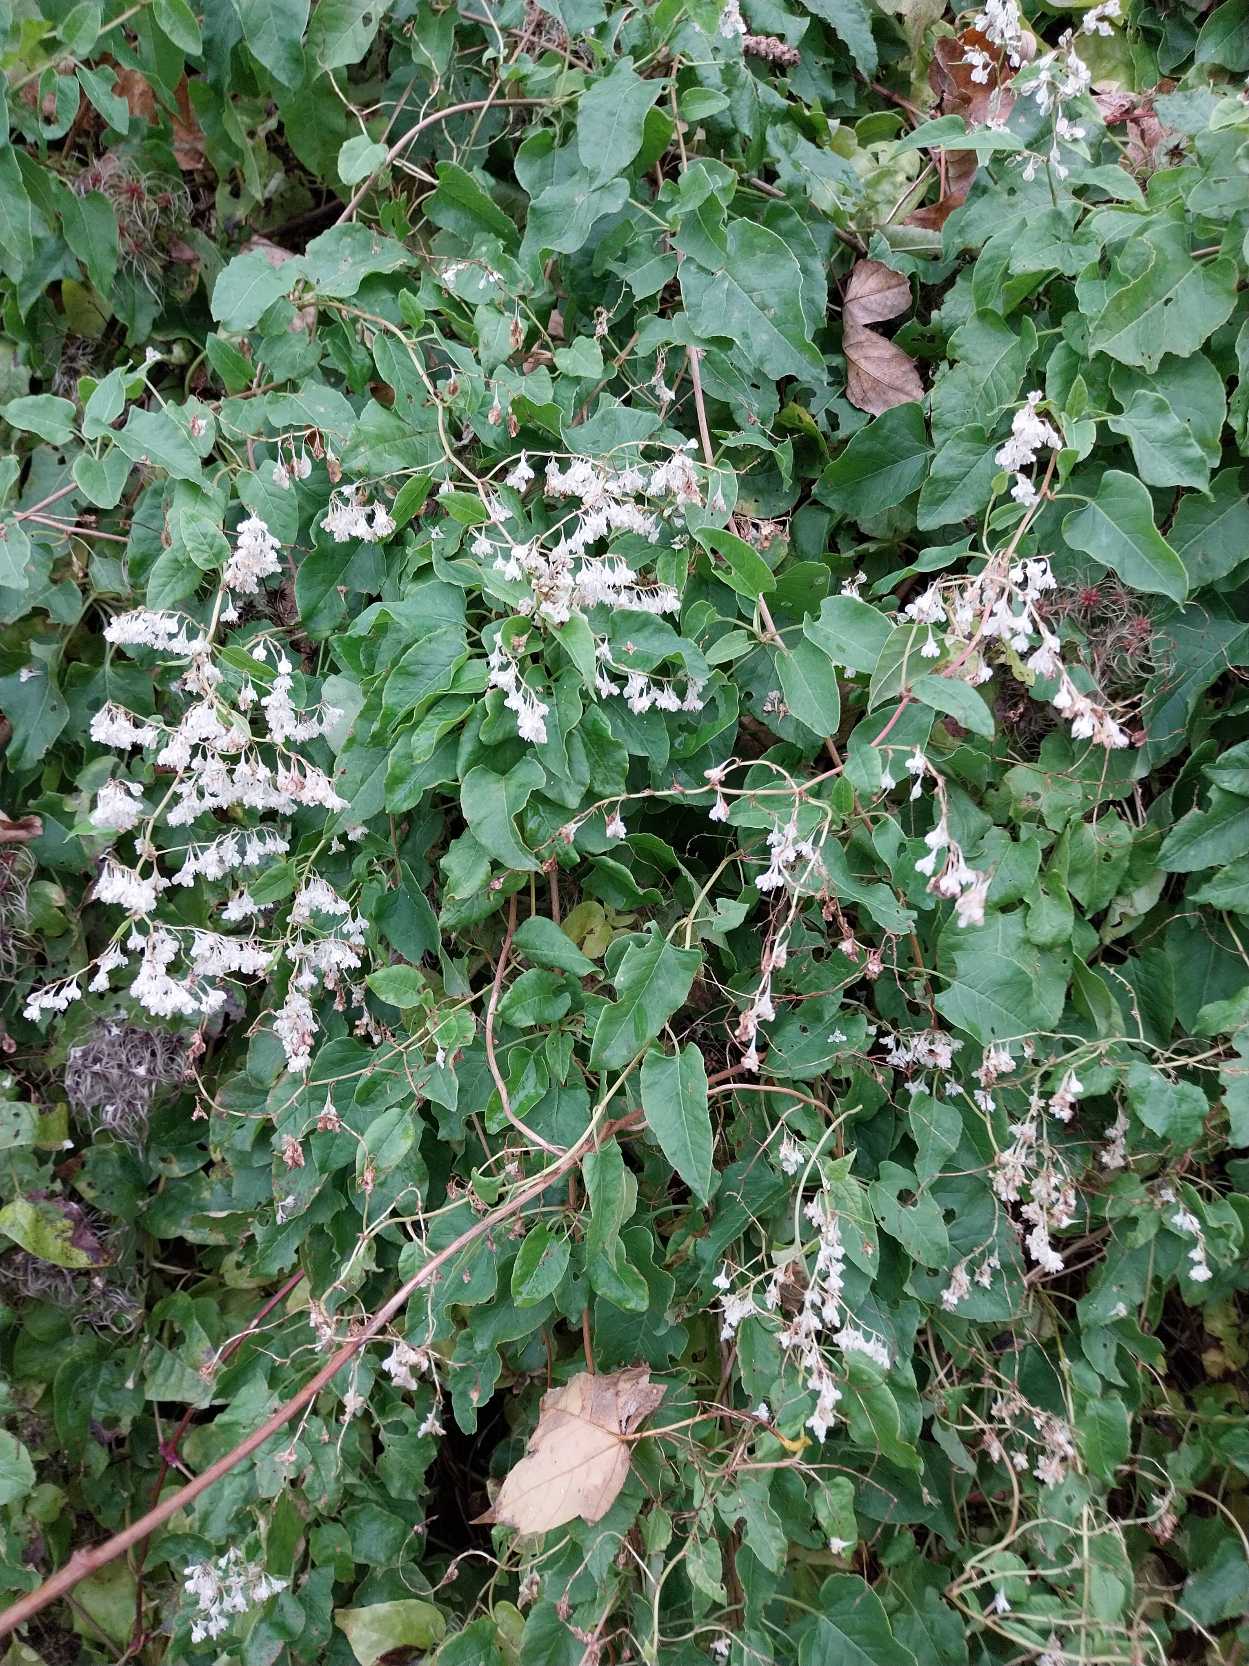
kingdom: Plantae
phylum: Tracheophyta
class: Magnoliopsida
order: Caryophyllales
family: Polygonaceae
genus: Fallopia
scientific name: Fallopia baldschuanica
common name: Sølvregn
